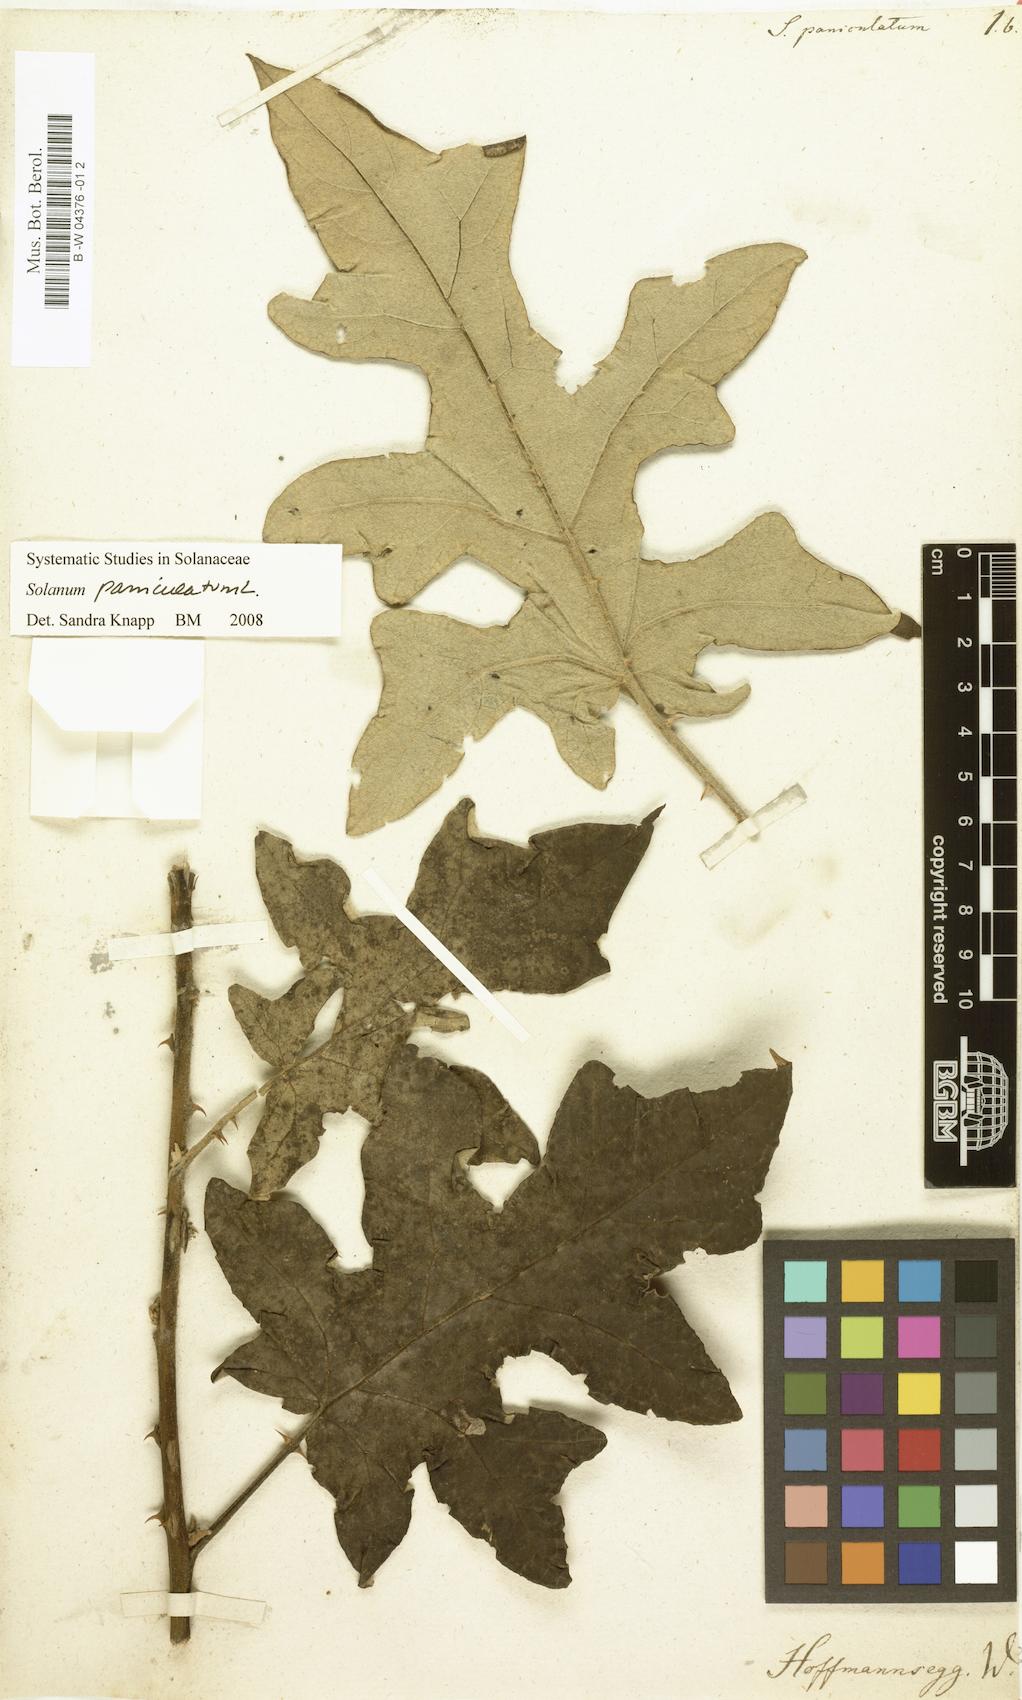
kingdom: Plantae
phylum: Tracheophyta
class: Magnoliopsida
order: Solanales
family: Solanaceae
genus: Solanum
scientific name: Solanum paniculatum
